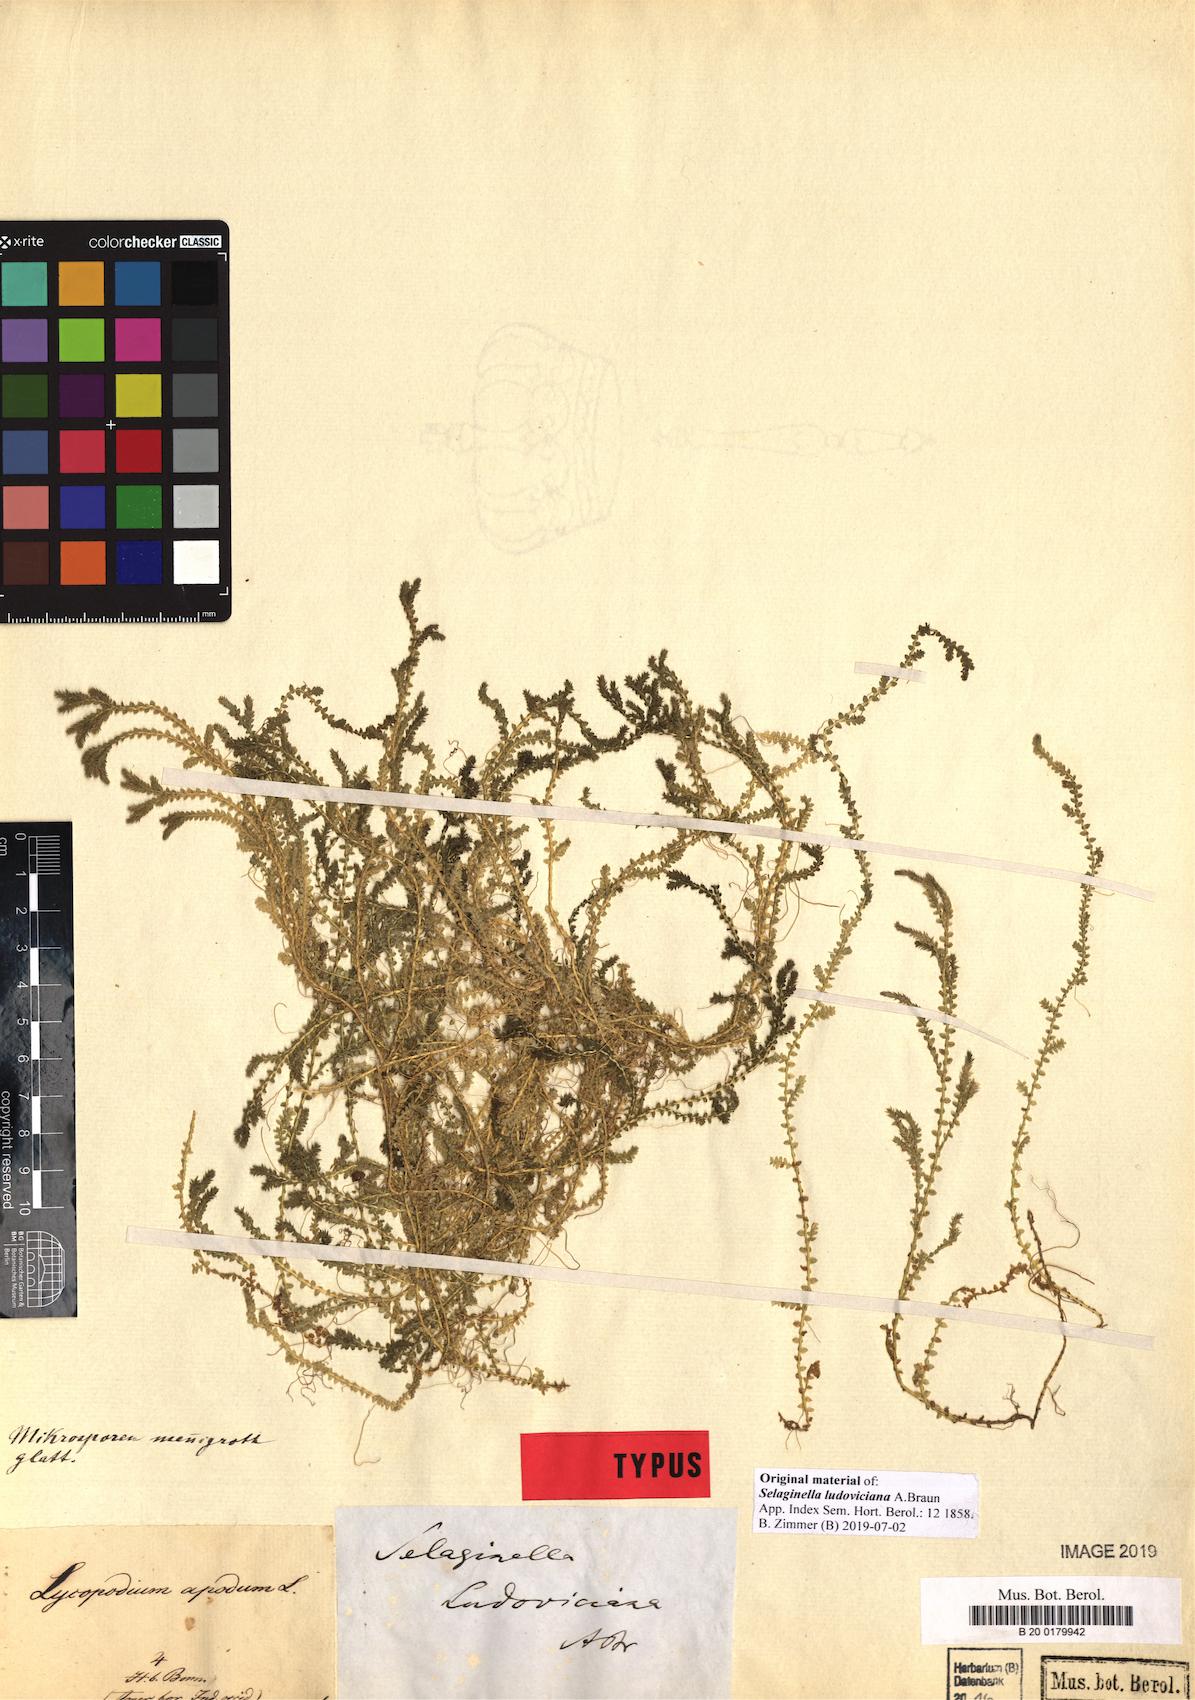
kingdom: Plantae
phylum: Tracheophyta
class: Lycopodiopsida
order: Selaginellales
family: Selaginellaceae
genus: Selaginella
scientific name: Selaginella ludoviciana
